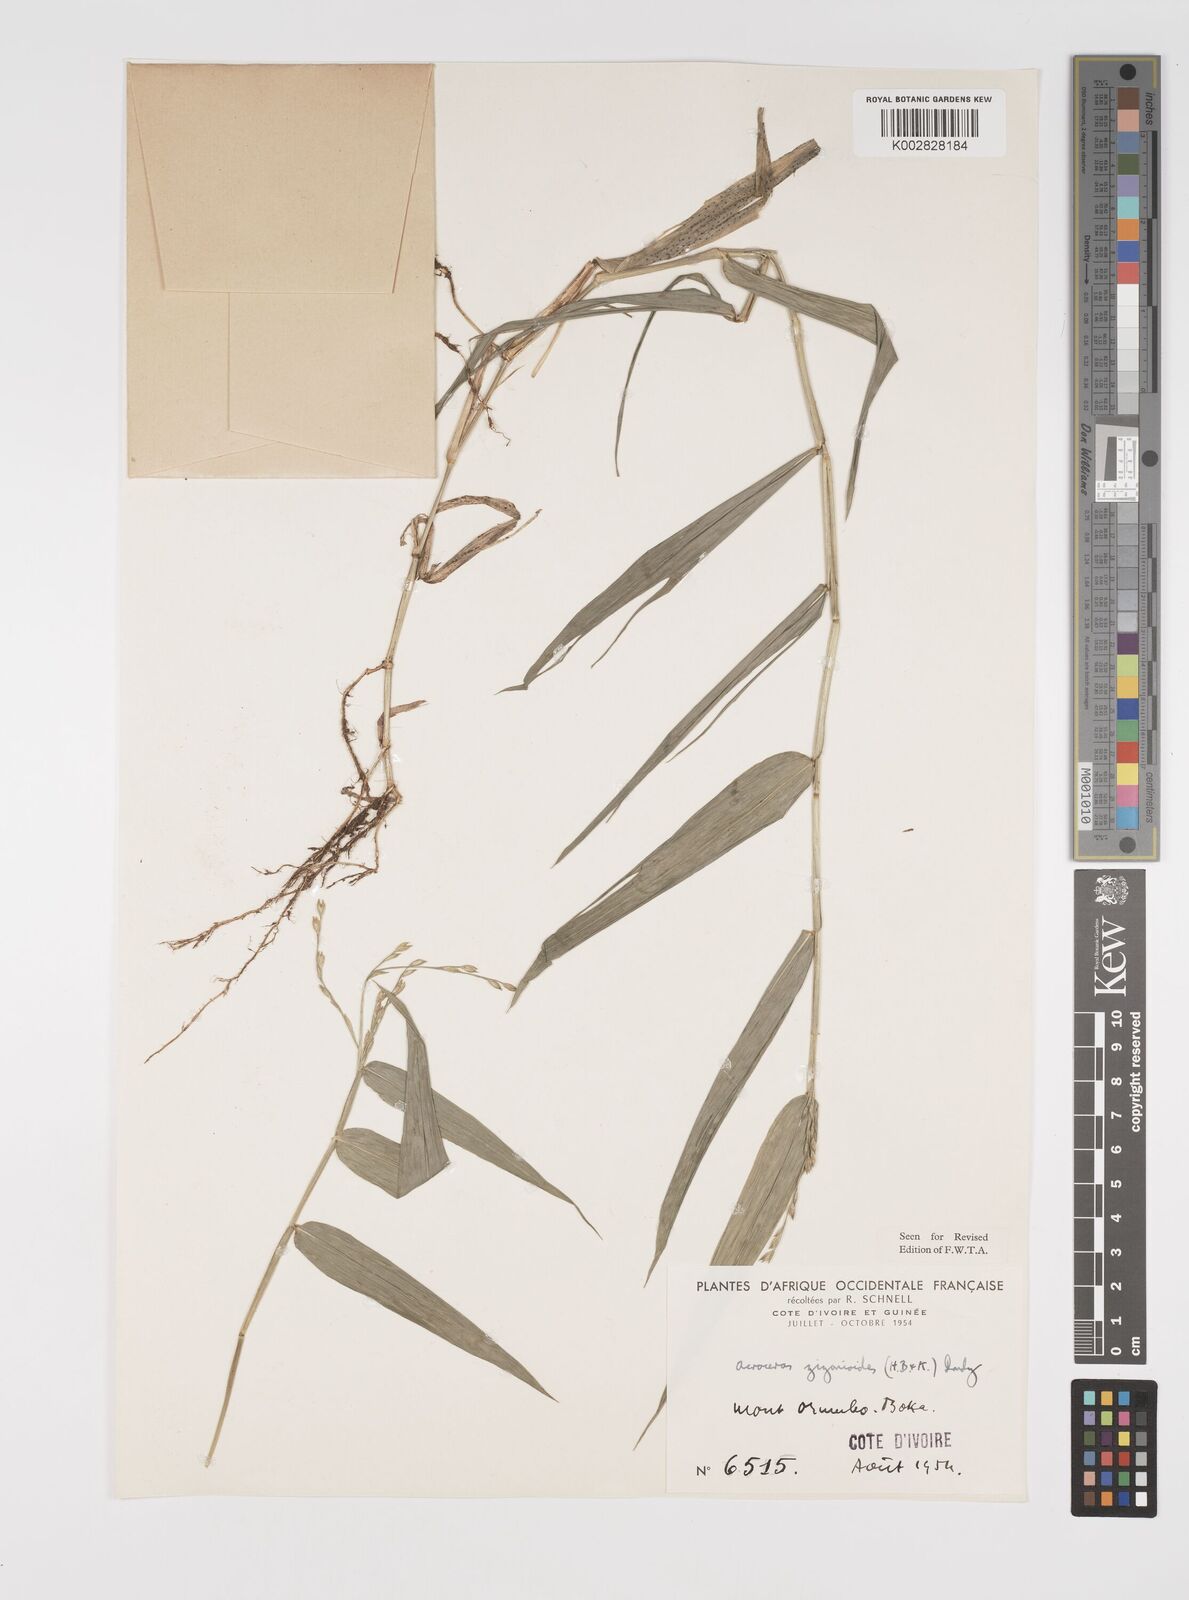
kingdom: Plantae
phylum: Tracheophyta
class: Liliopsida
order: Poales
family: Poaceae
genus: Acroceras
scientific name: Acroceras zizanioides
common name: Oat grass
